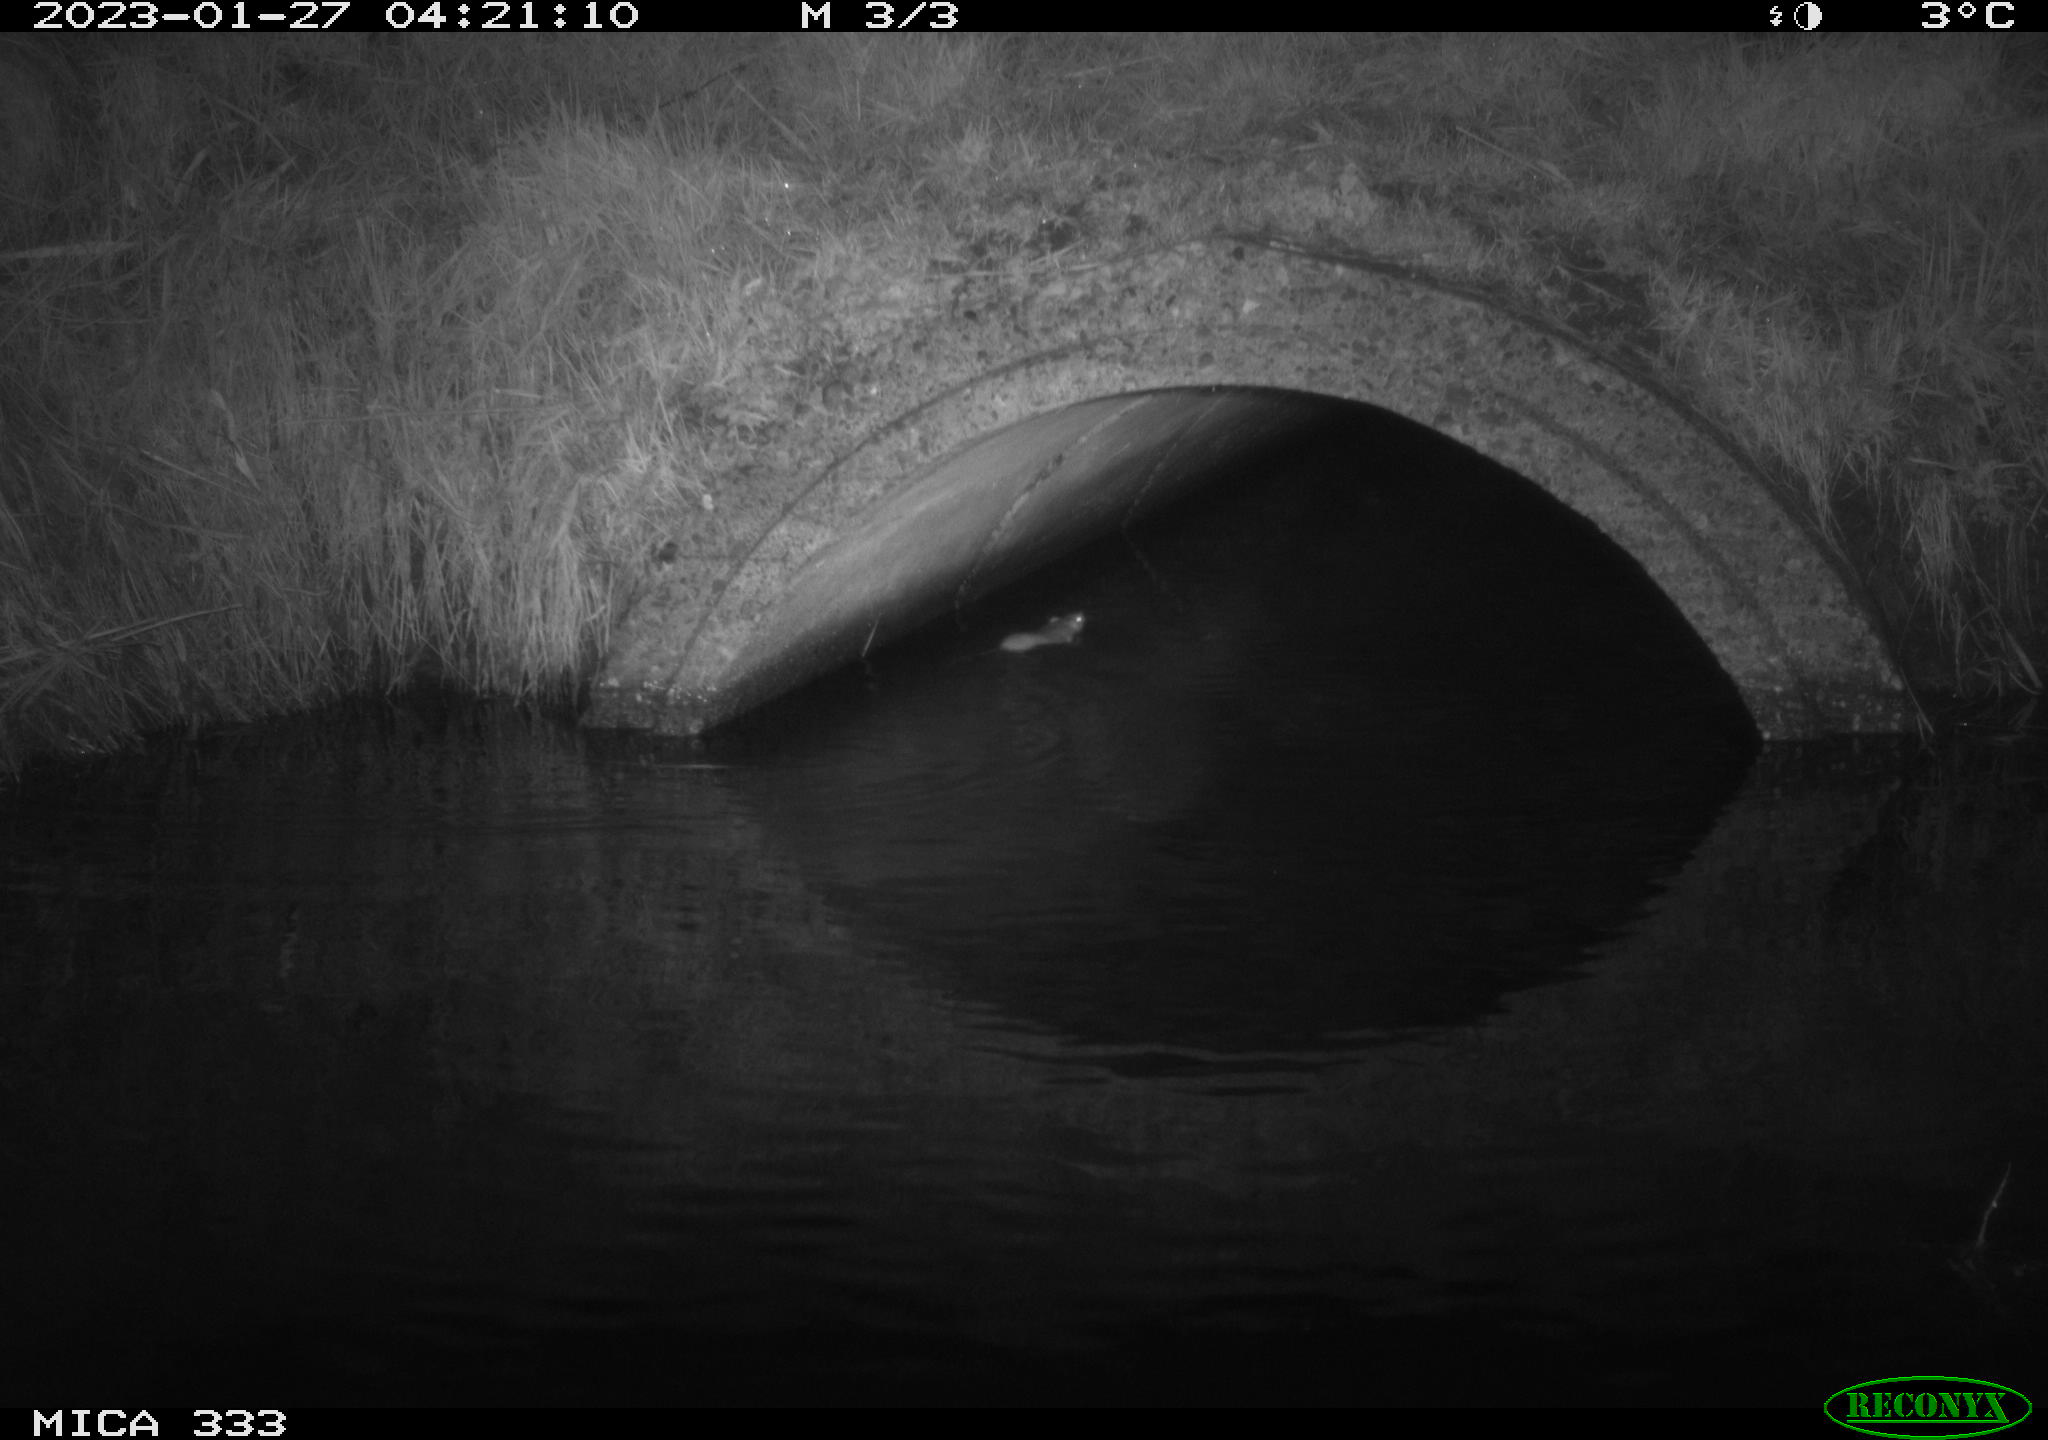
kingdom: Animalia
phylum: Chordata
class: Mammalia
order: Rodentia
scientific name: Rodentia
